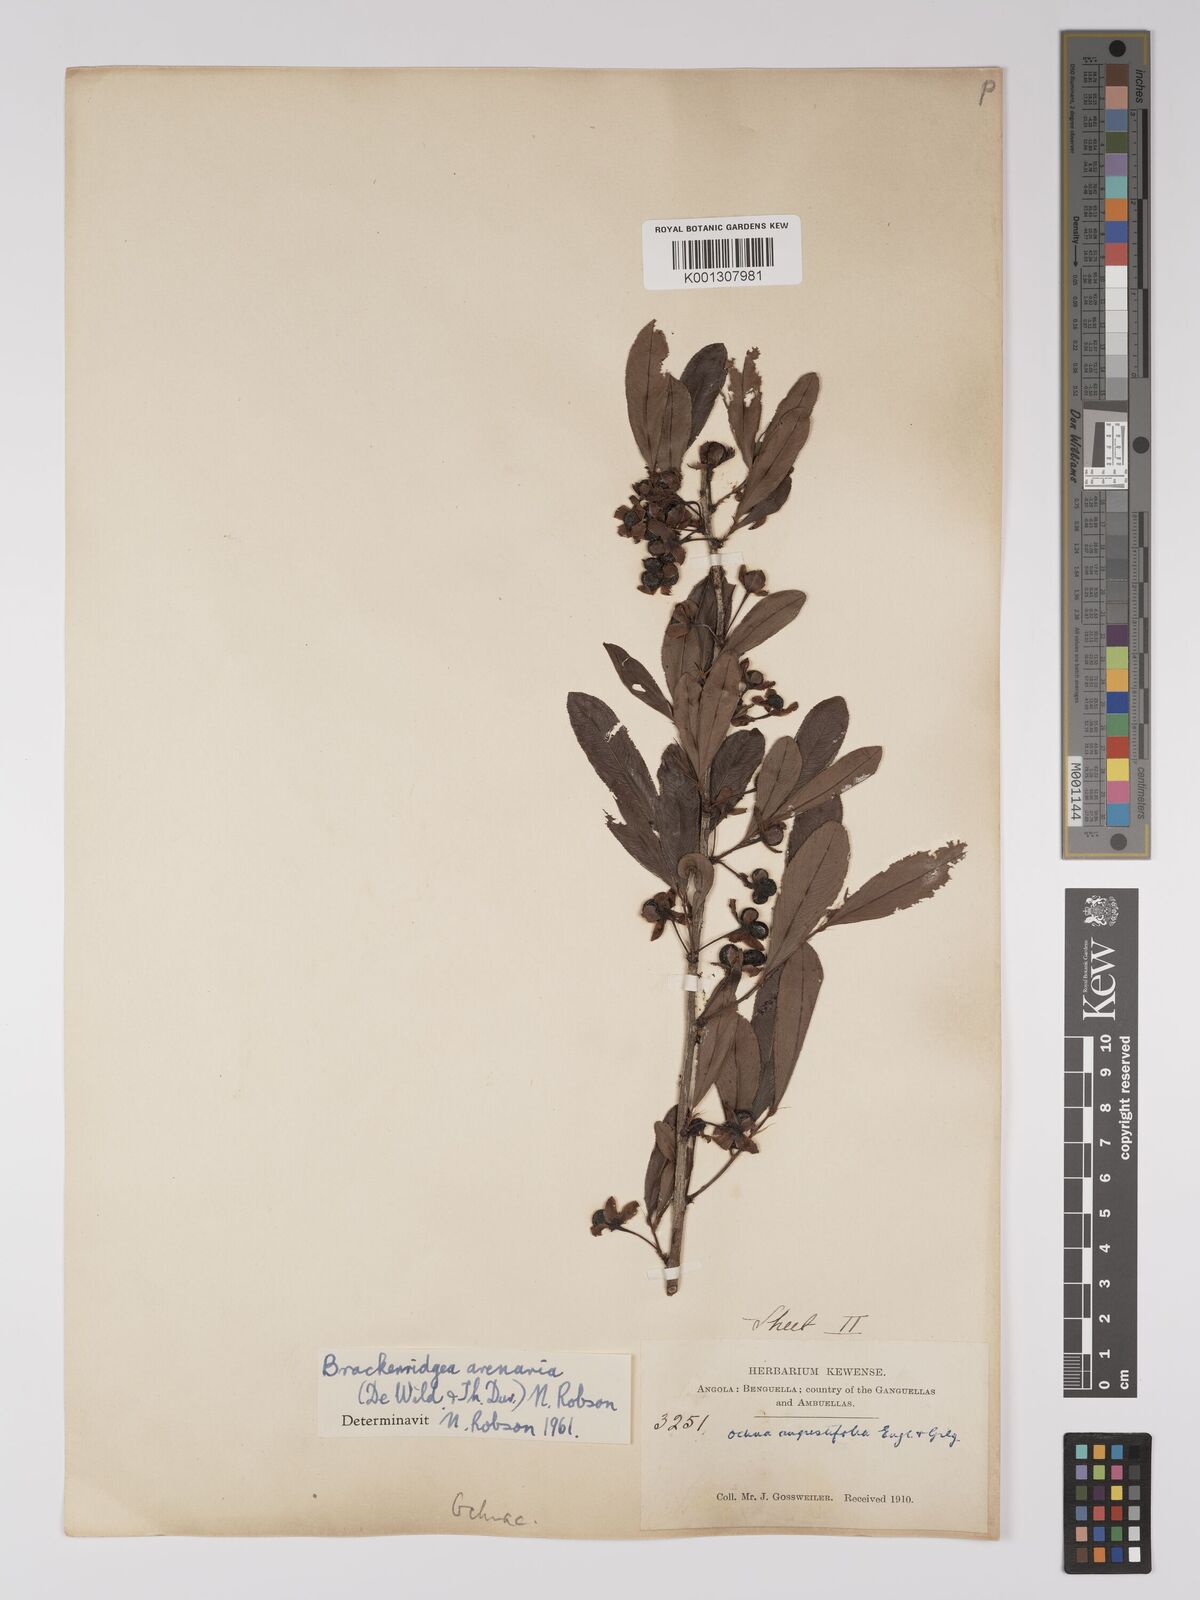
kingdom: Plantae
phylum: Tracheophyta
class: Magnoliopsida
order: Malpighiales
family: Ochnaceae
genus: Brackenridgea
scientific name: Brackenridgea
